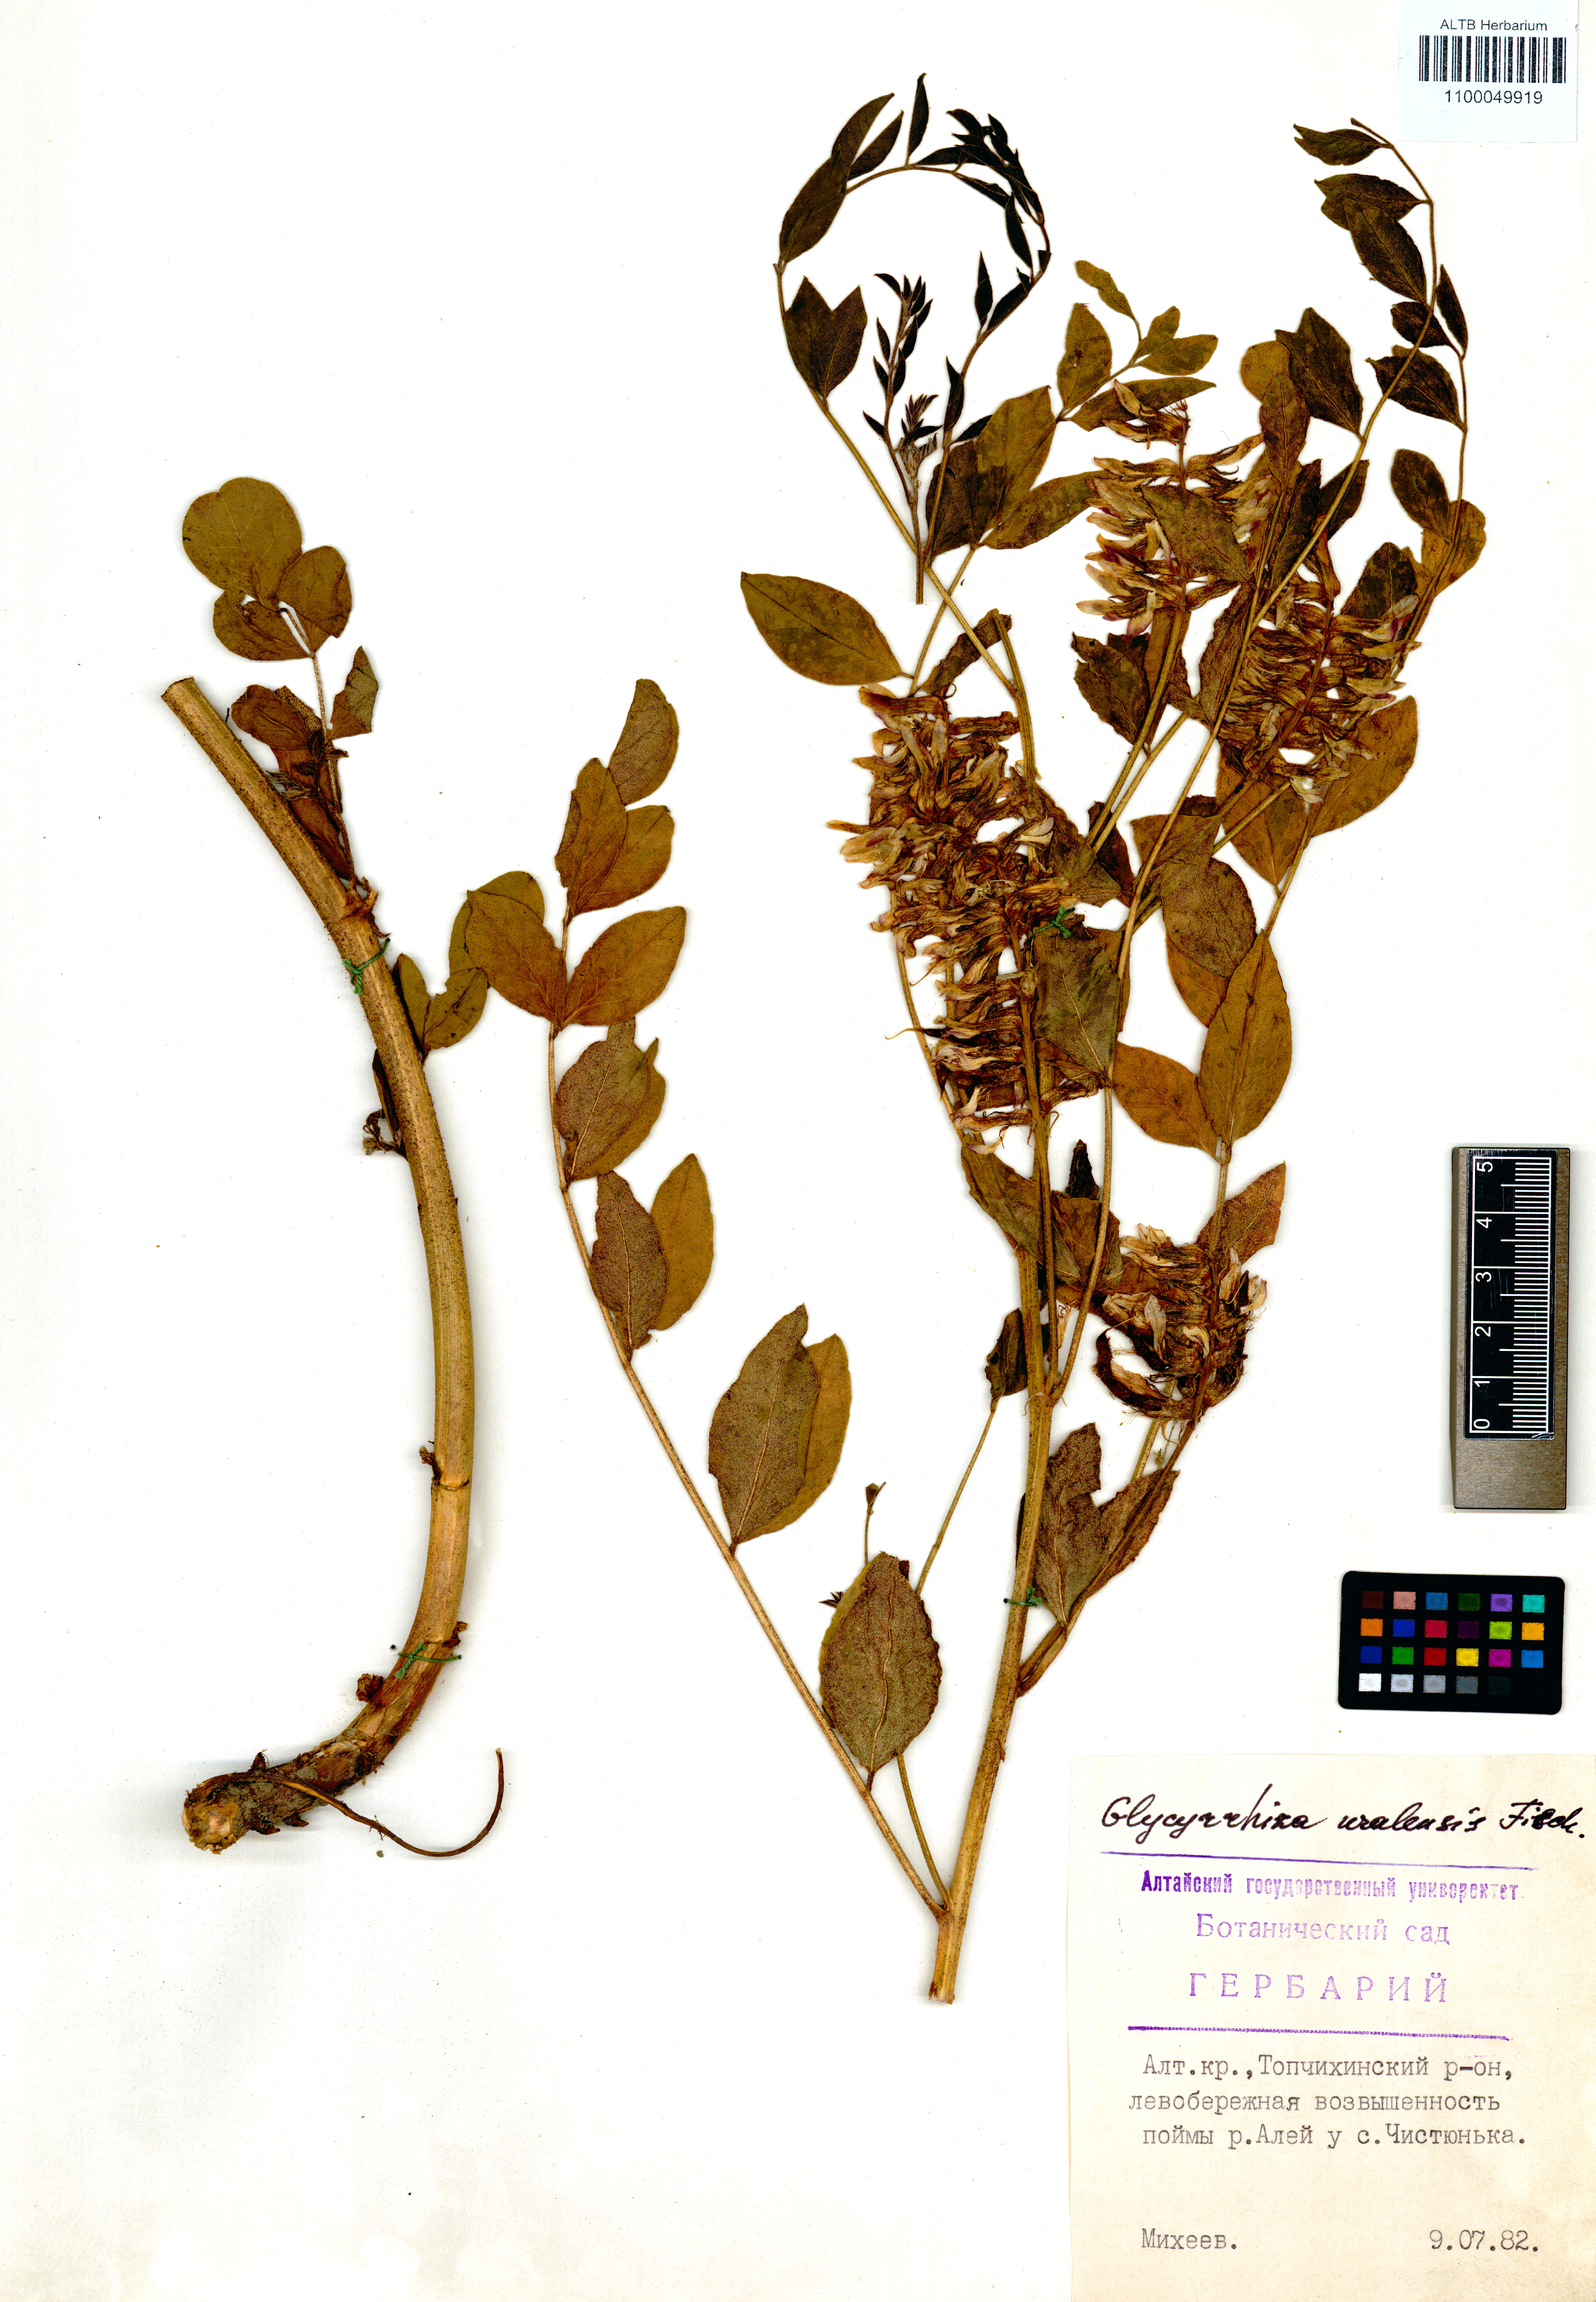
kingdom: Plantae
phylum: Tracheophyta
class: Magnoliopsida
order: Fabales
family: Fabaceae
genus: Glycyrrhiza
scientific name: Glycyrrhiza uralensis
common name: Chinese licorice
